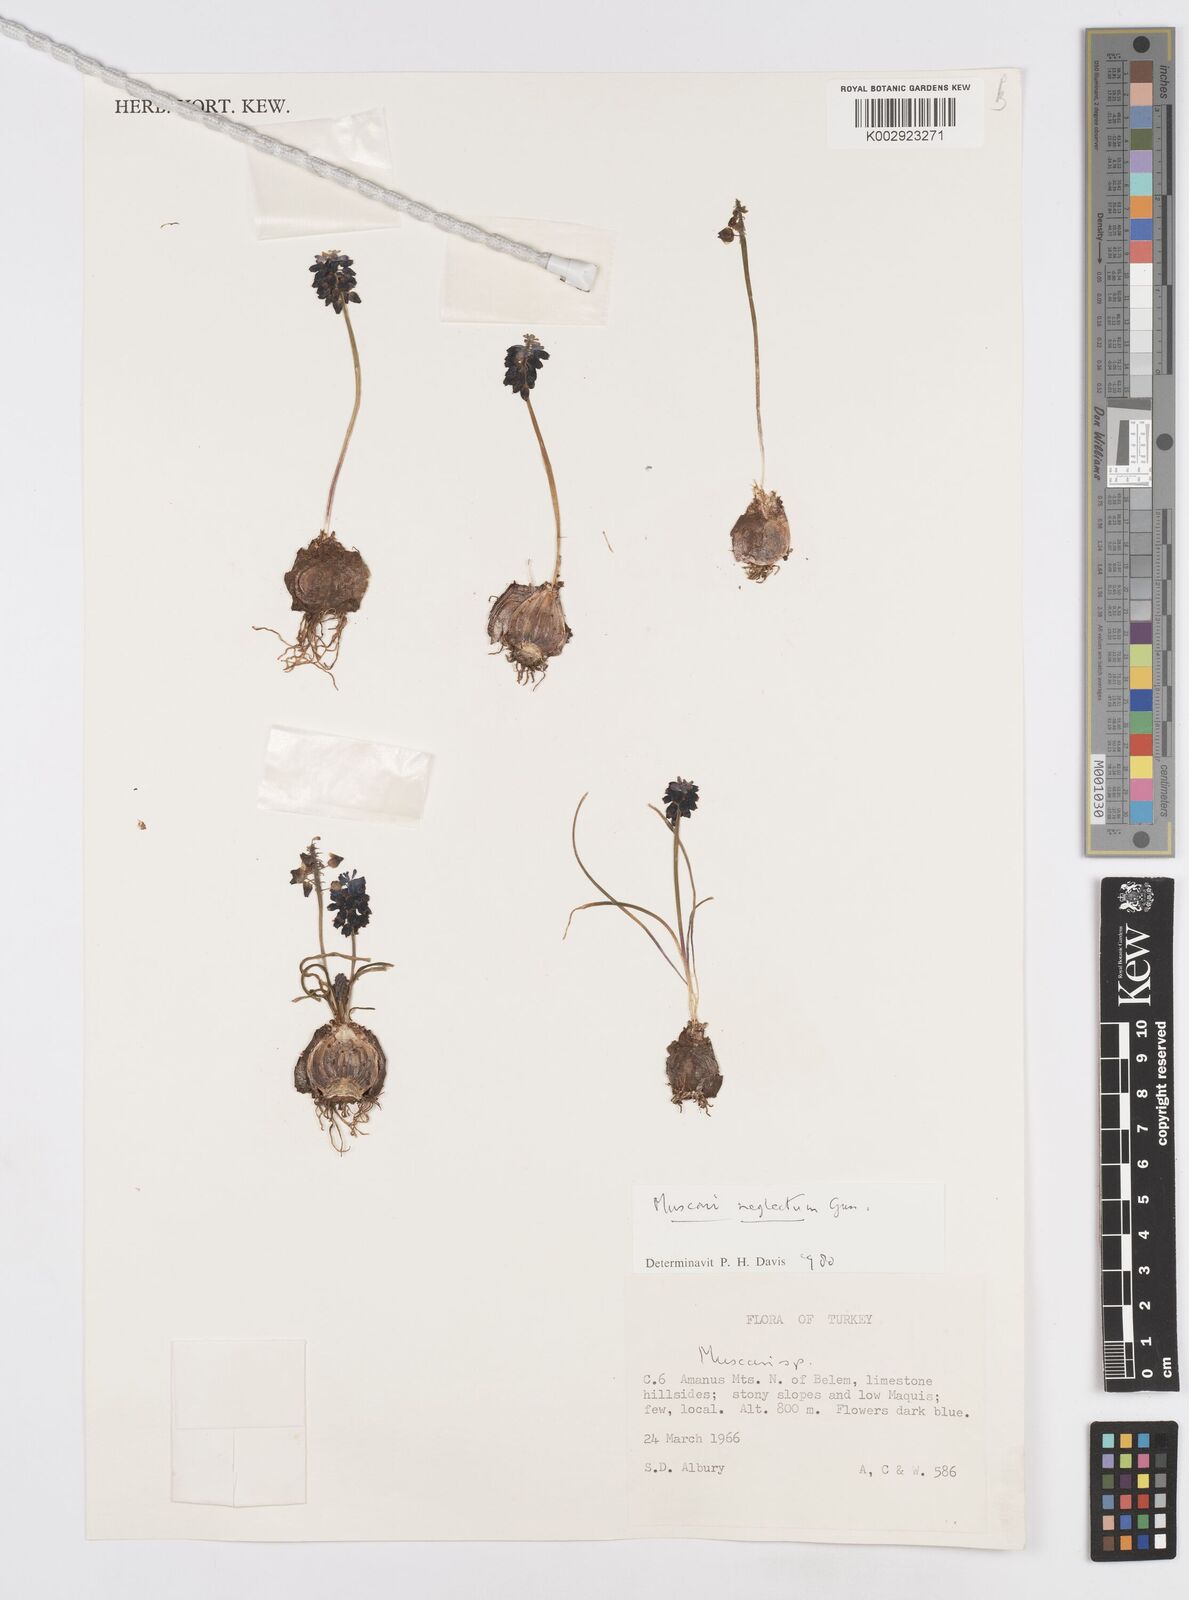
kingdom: Plantae
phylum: Tracheophyta
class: Liliopsida
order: Asparagales
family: Asparagaceae
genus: Muscari
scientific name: Muscari
